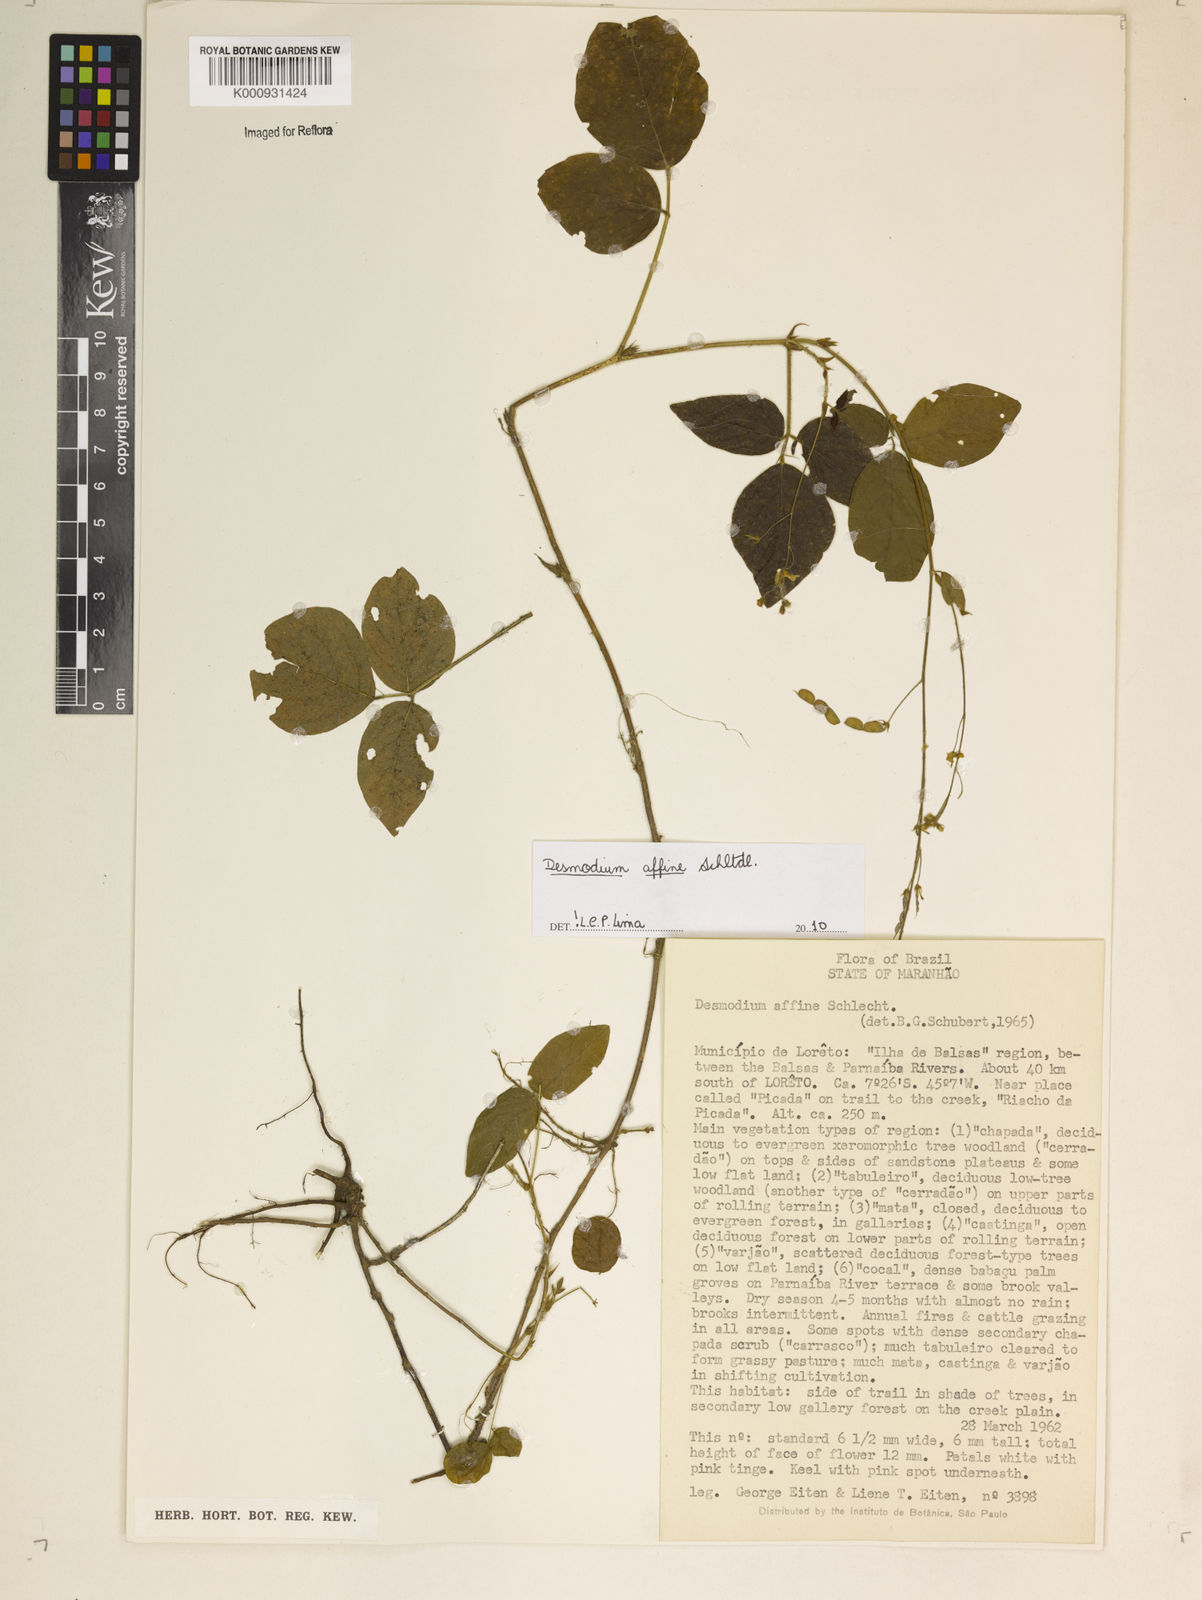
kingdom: Plantae
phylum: Tracheophyta
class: Magnoliopsida
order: Fabales
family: Fabaceae
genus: Desmodium
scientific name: Desmodium affine
